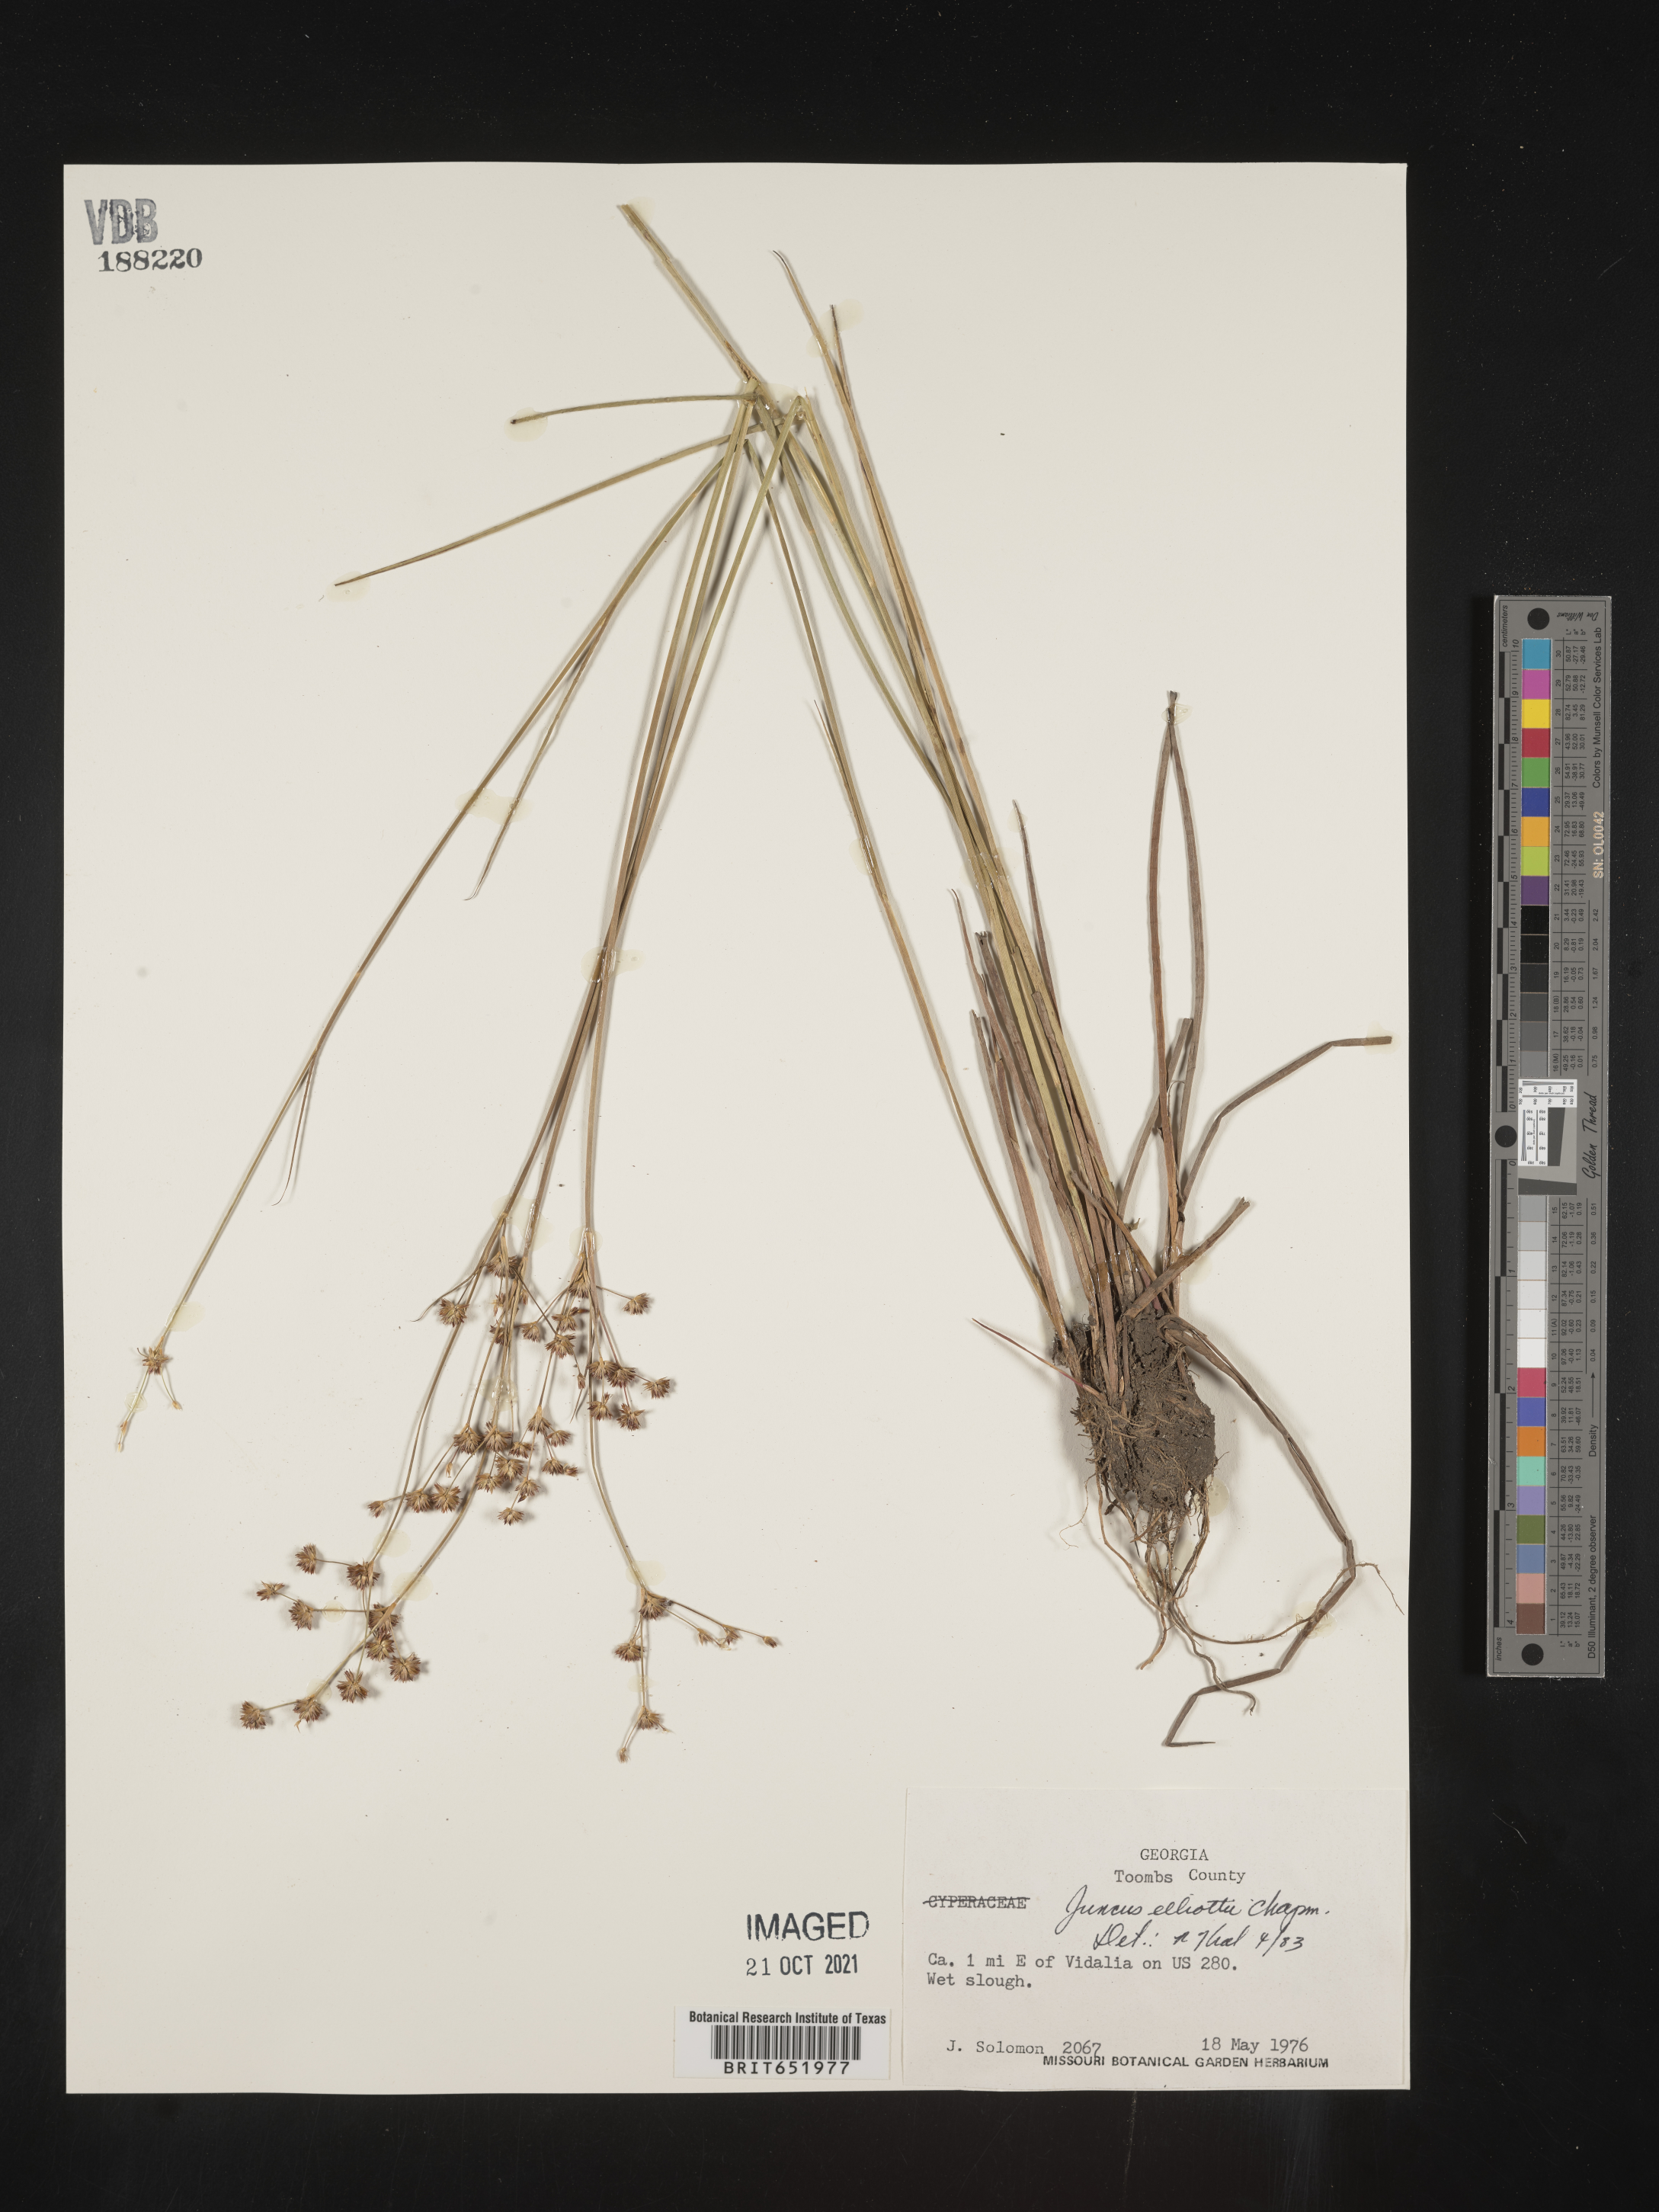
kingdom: Plantae
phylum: Tracheophyta
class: Liliopsida
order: Poales
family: Juncaceae
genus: Juncus
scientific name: Juncus elliottii
